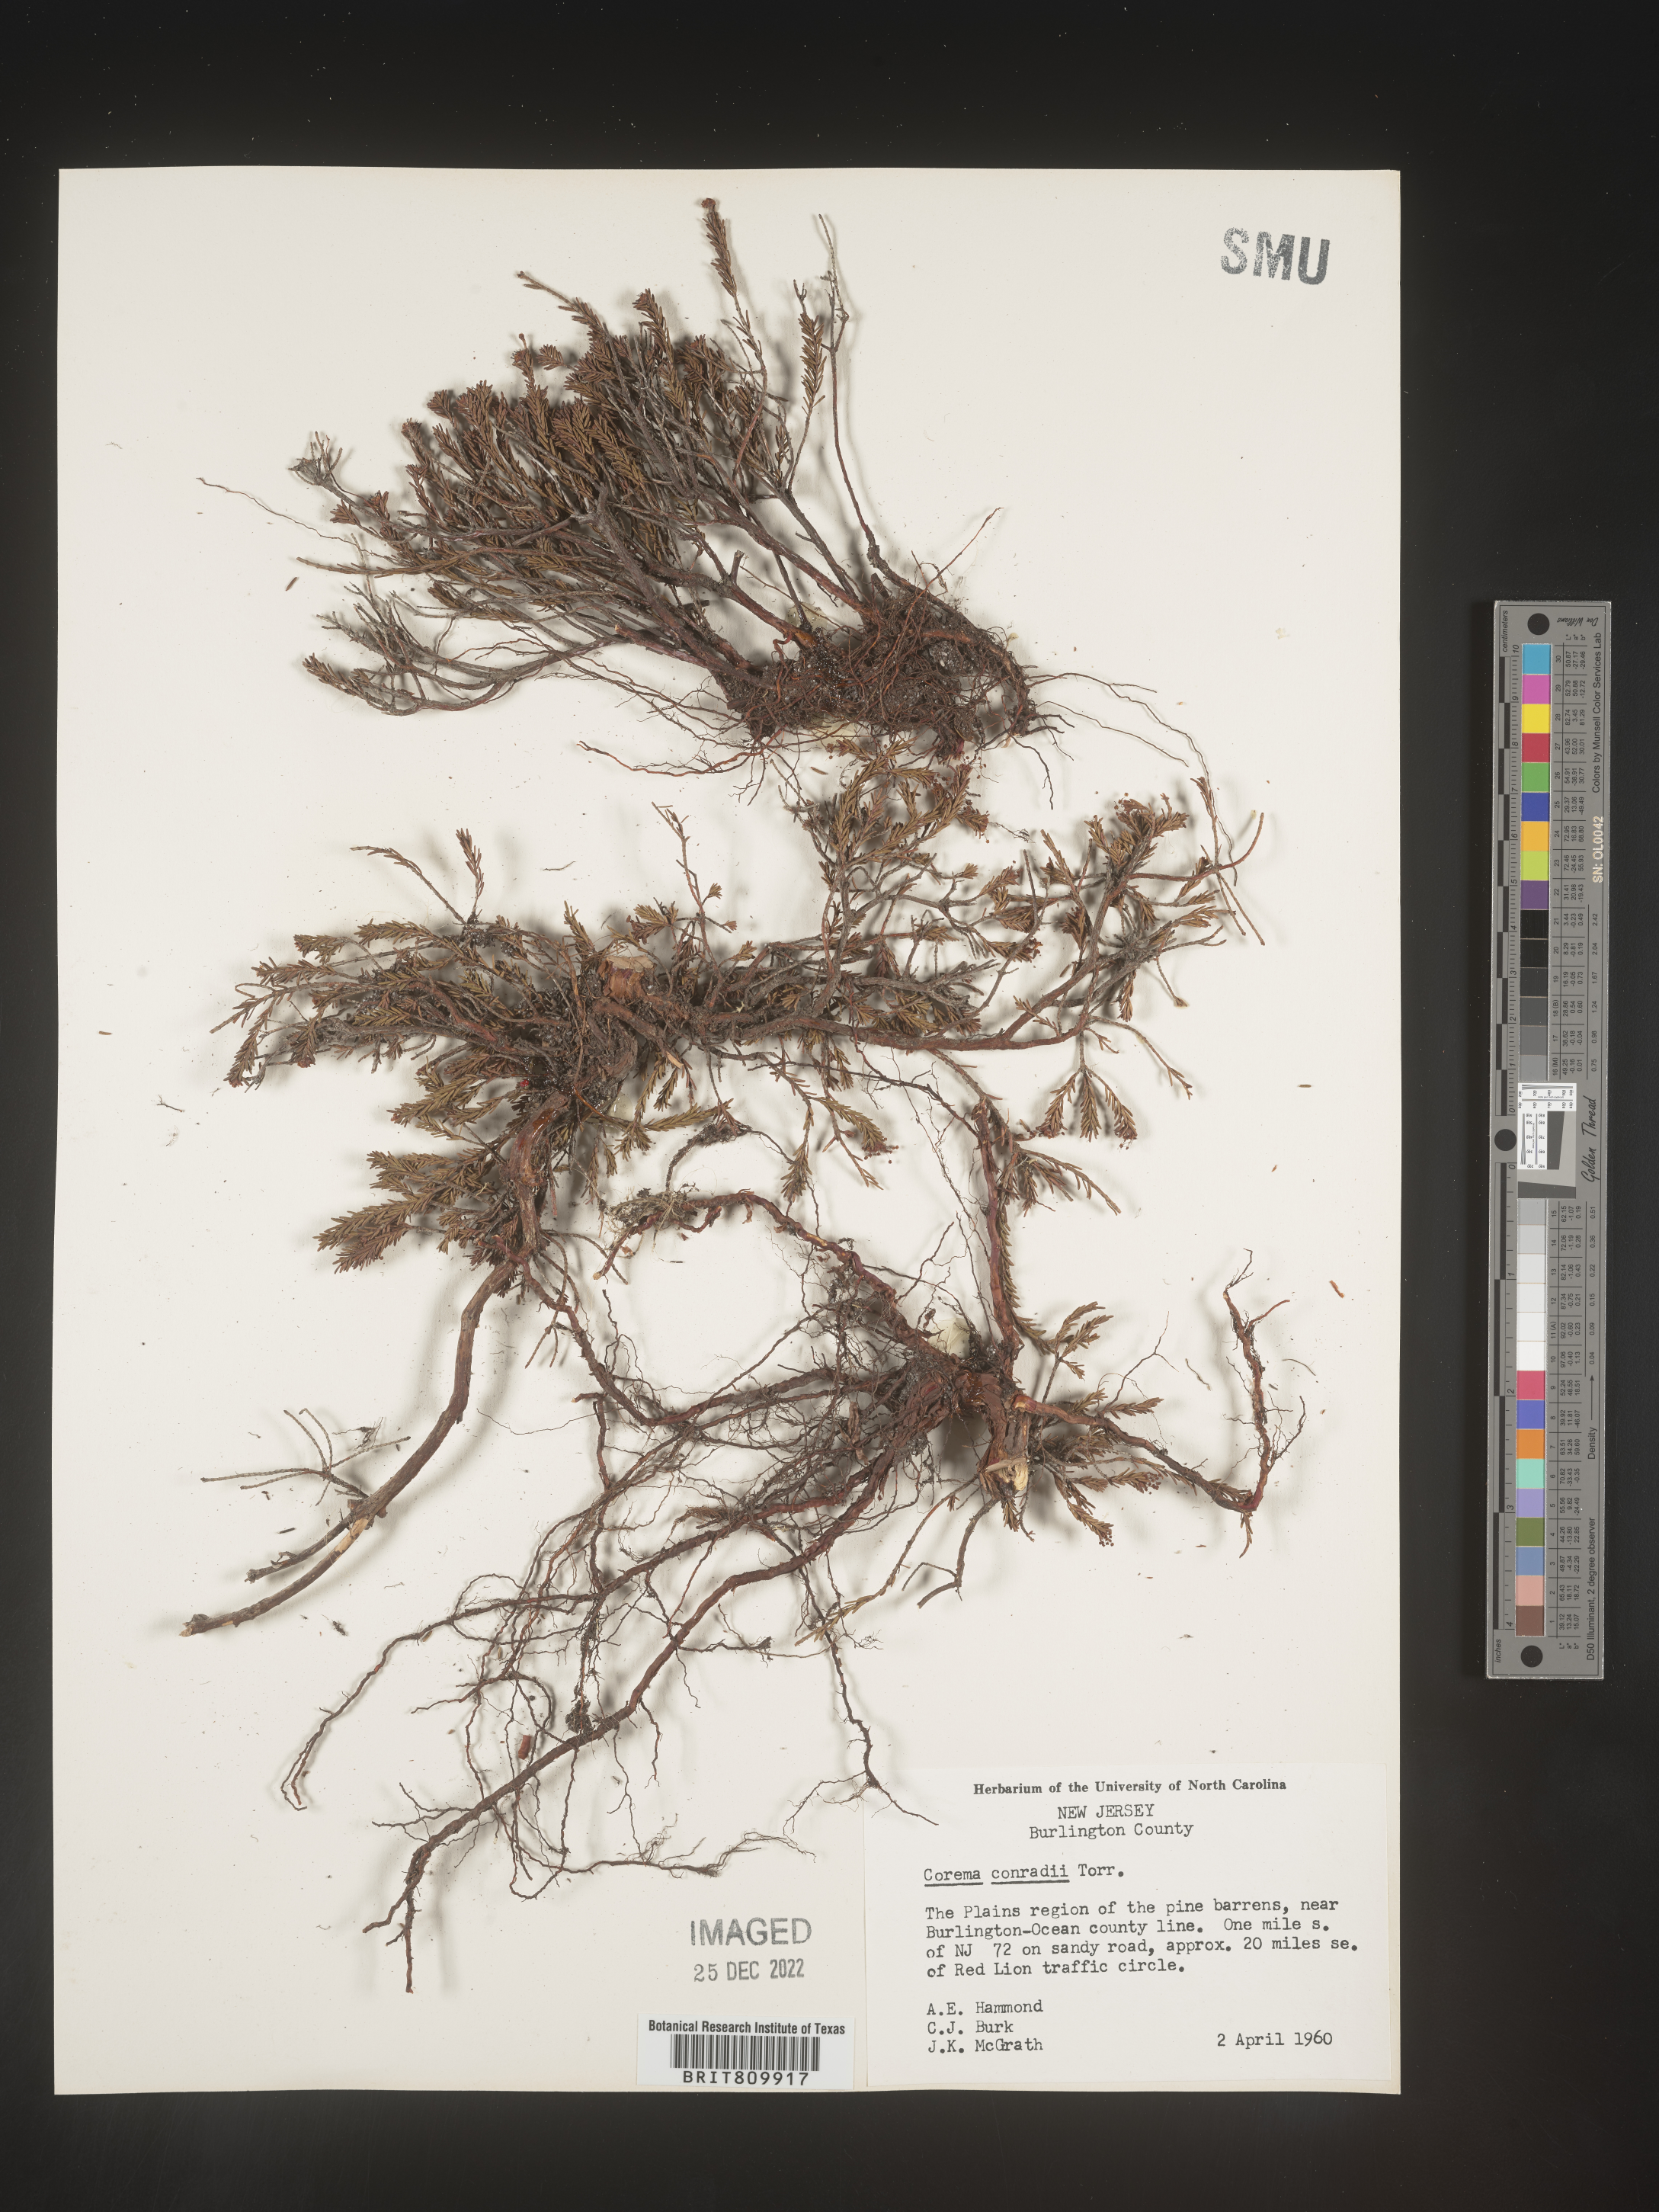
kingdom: Plantae
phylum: Tracheophyta
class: Magnoliopsida
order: Ericales
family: Ericaceae
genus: Corema
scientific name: Corema
